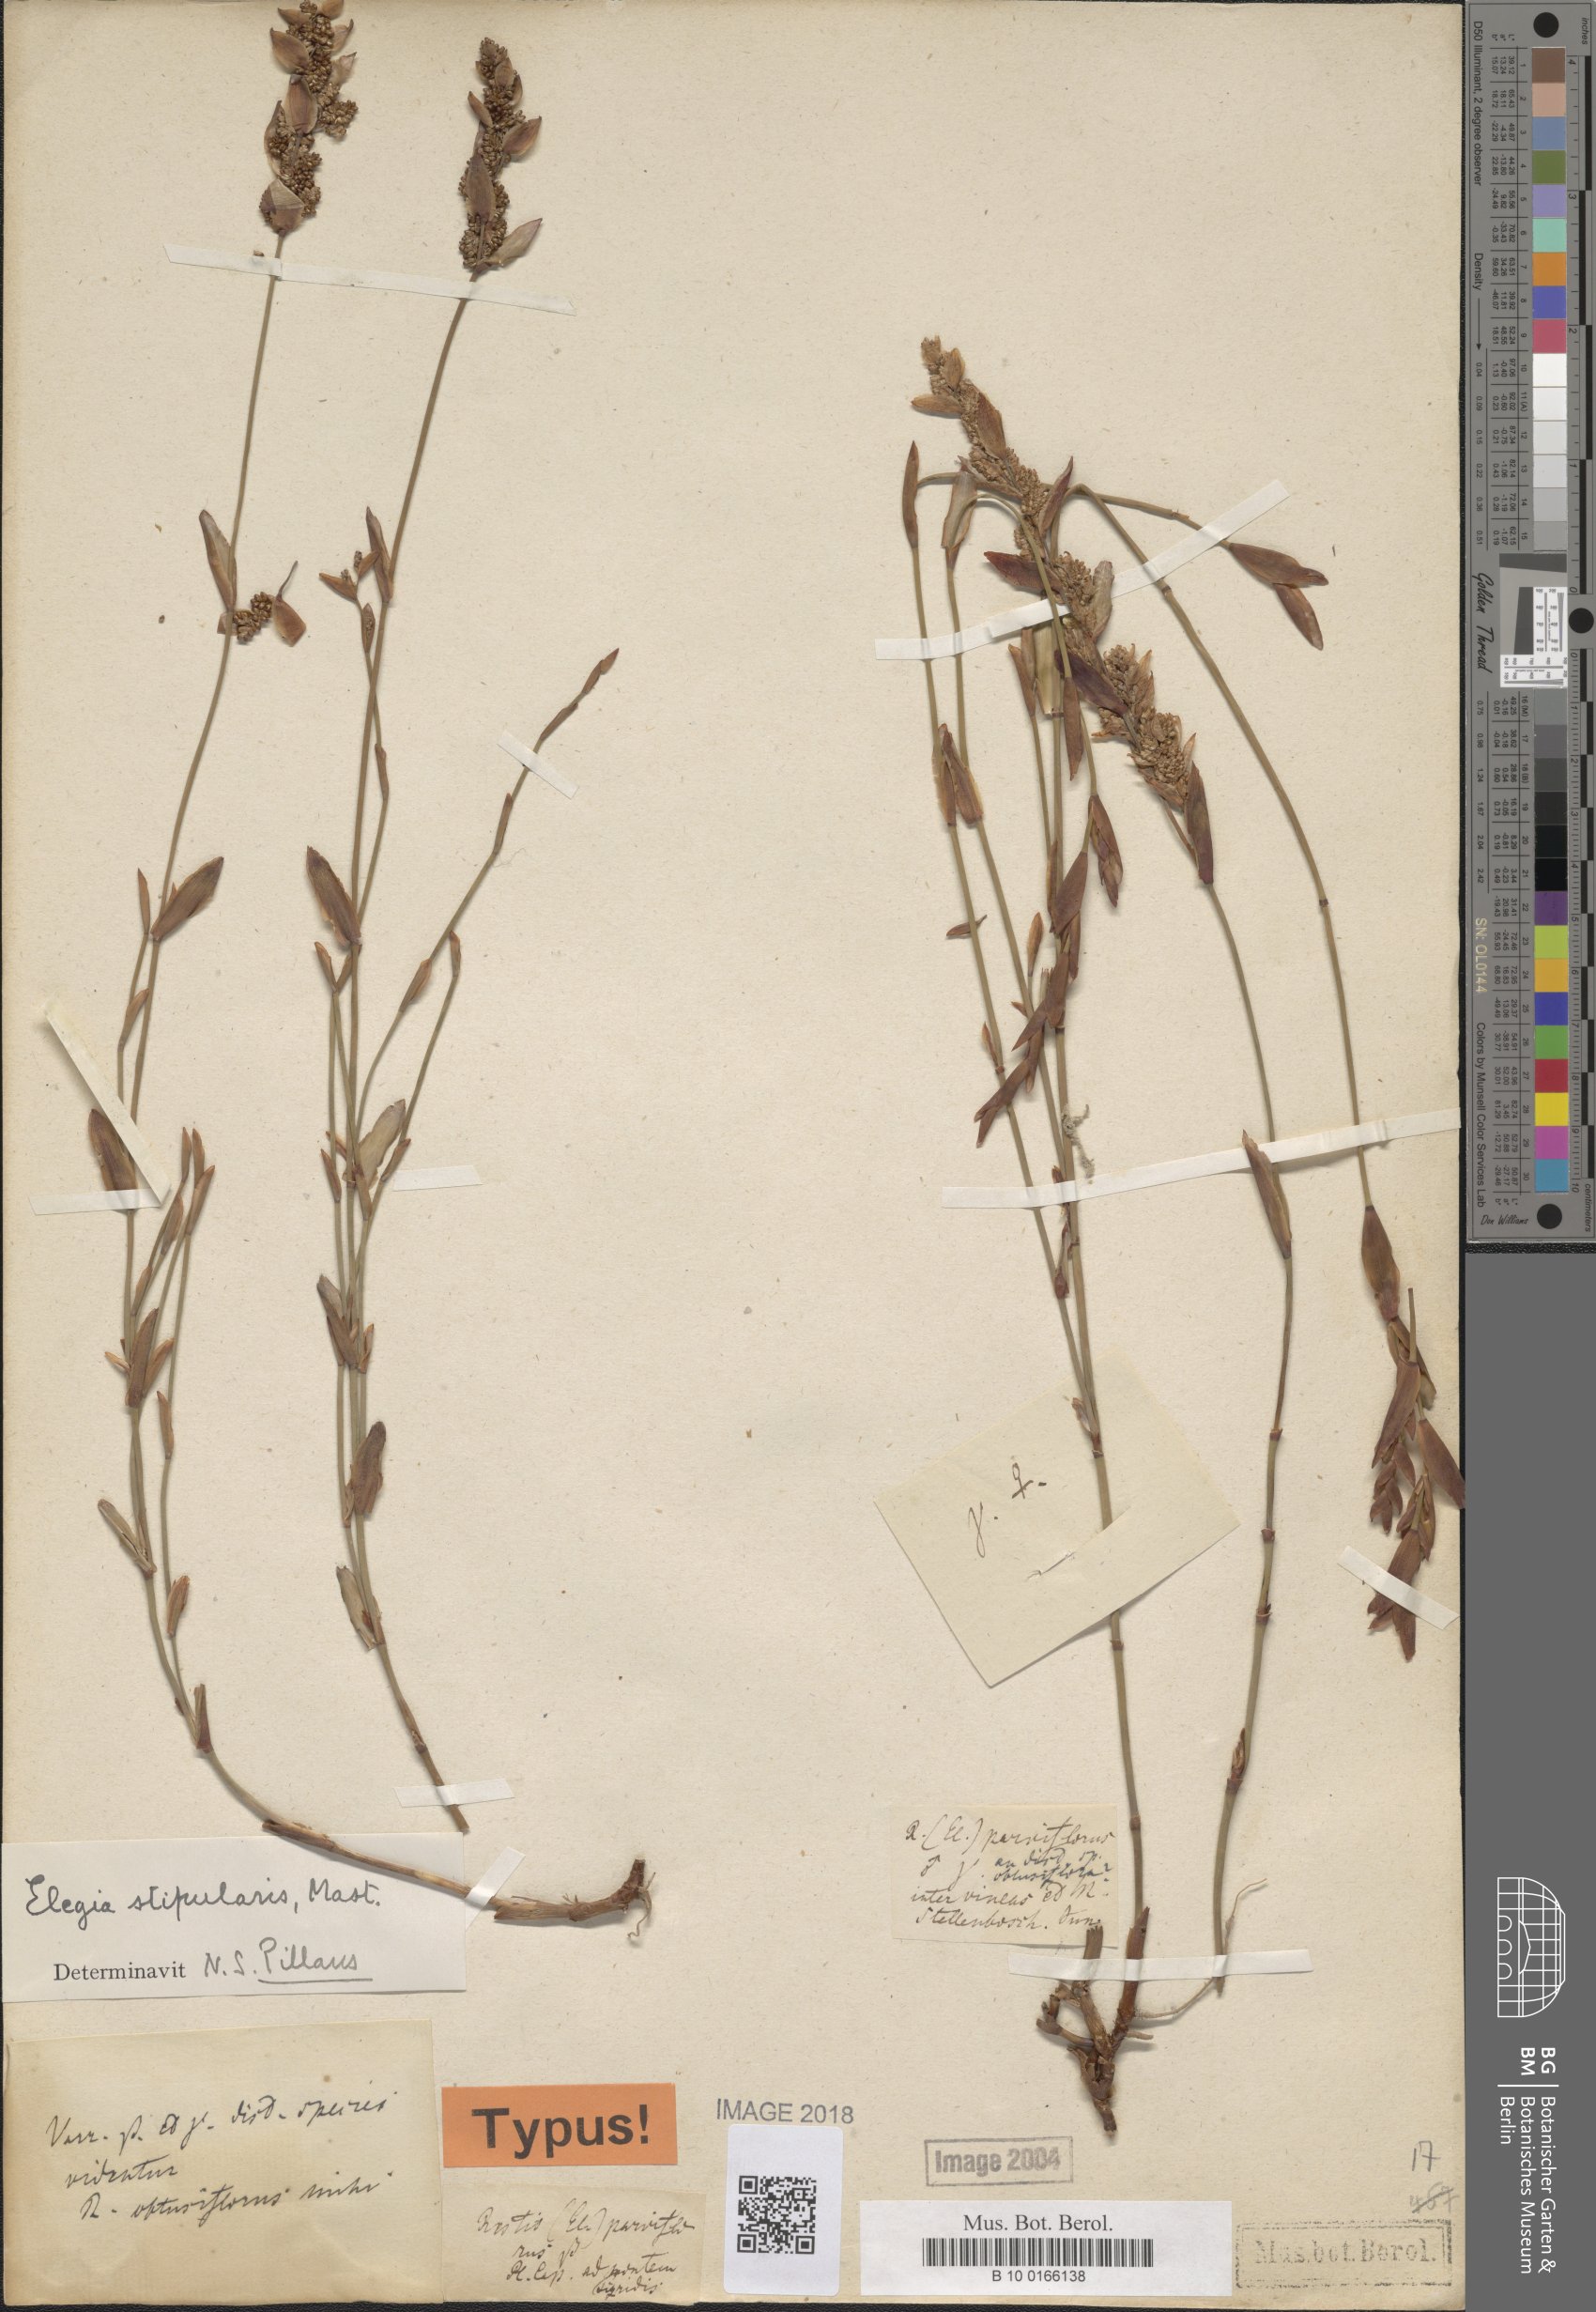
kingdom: Plantae
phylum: Tracheophyta
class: Liliopsida
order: Poales
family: Restionaceae
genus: Elegia
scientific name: Elegia stipularis
